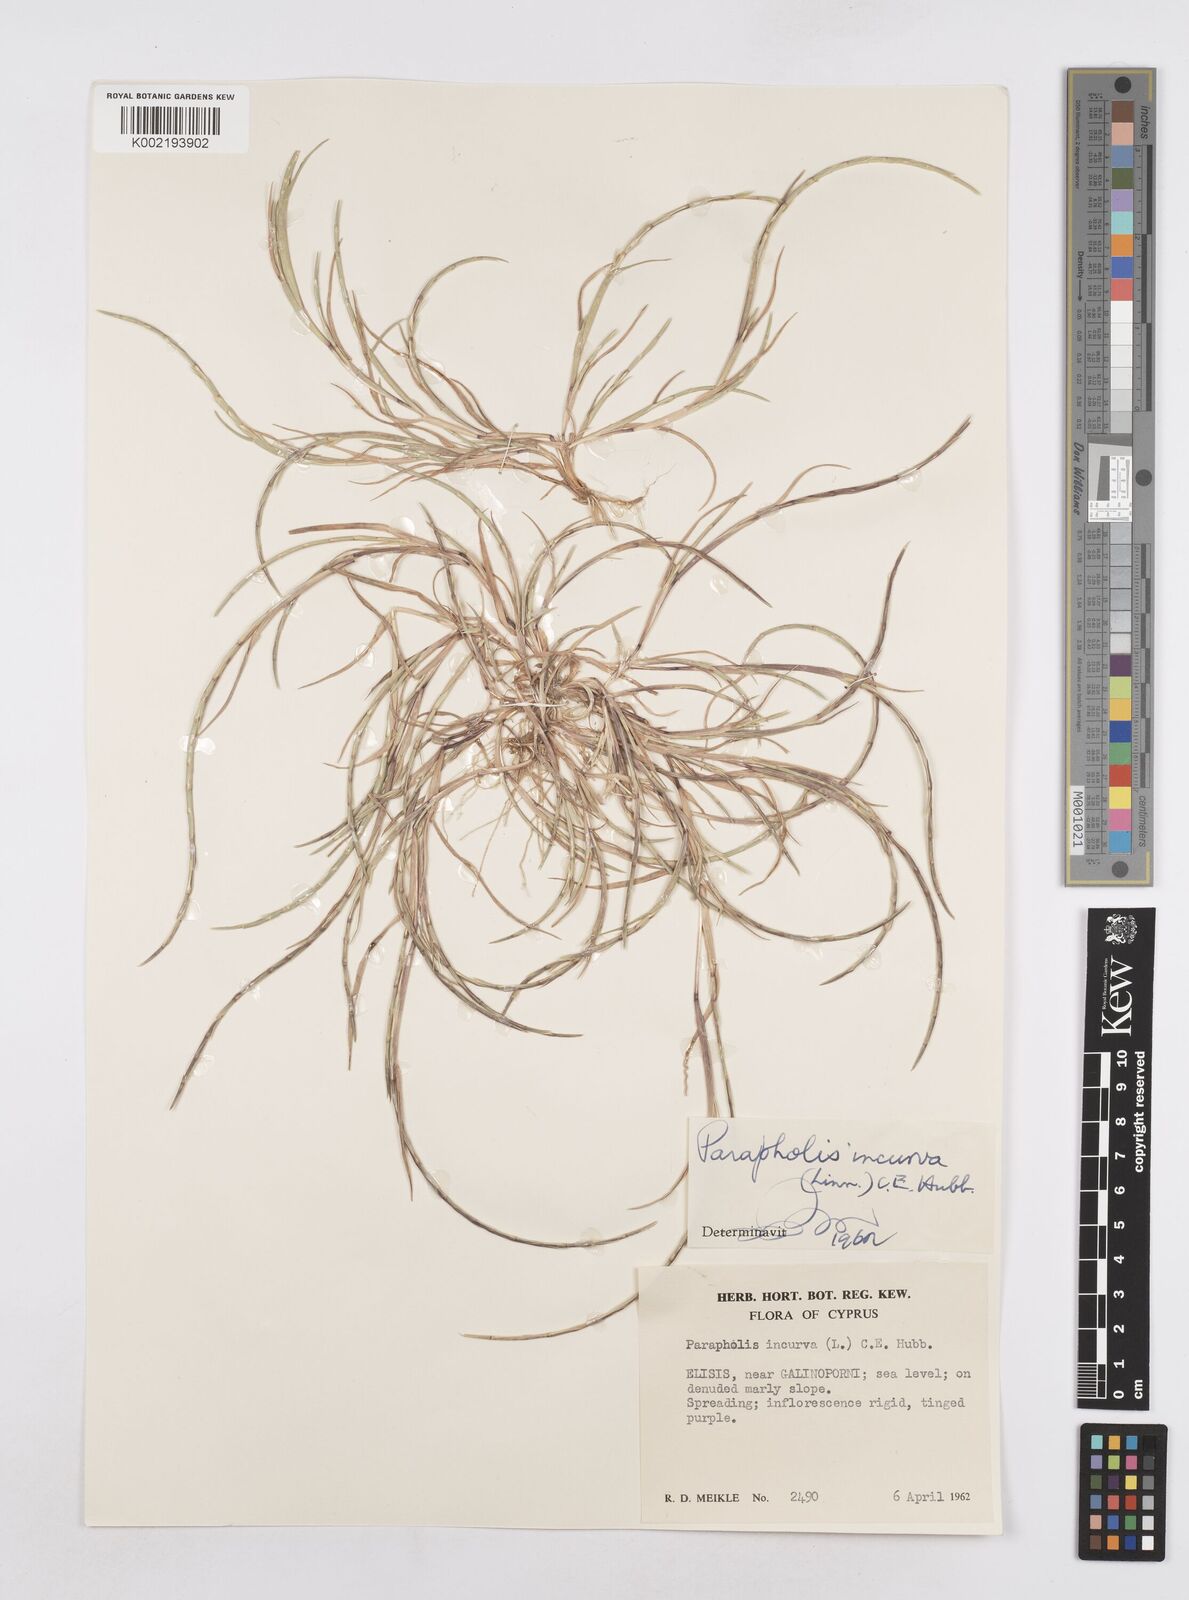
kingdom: Plantae
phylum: Tracheophyta
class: Liliopsida
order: Poales
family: Poaceae
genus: Parapholis
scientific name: Parapholis incurva
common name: Curved sicklegrass
